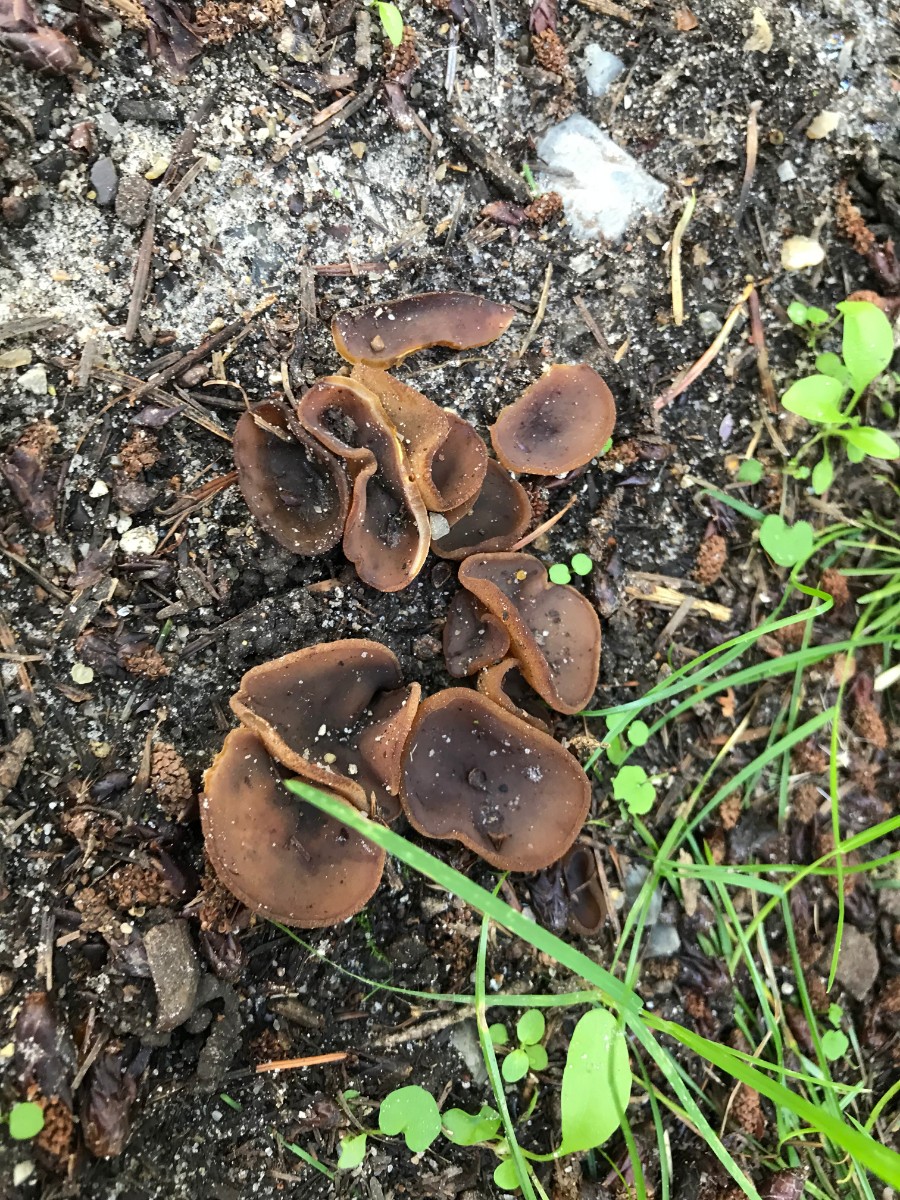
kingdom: Fungi
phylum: Ascomycota
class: Pezizomycetes
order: Pezizales
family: Pezizaceae
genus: Paragalactinia
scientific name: Paragalactinia michelii
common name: gulkødet bægersvamp
